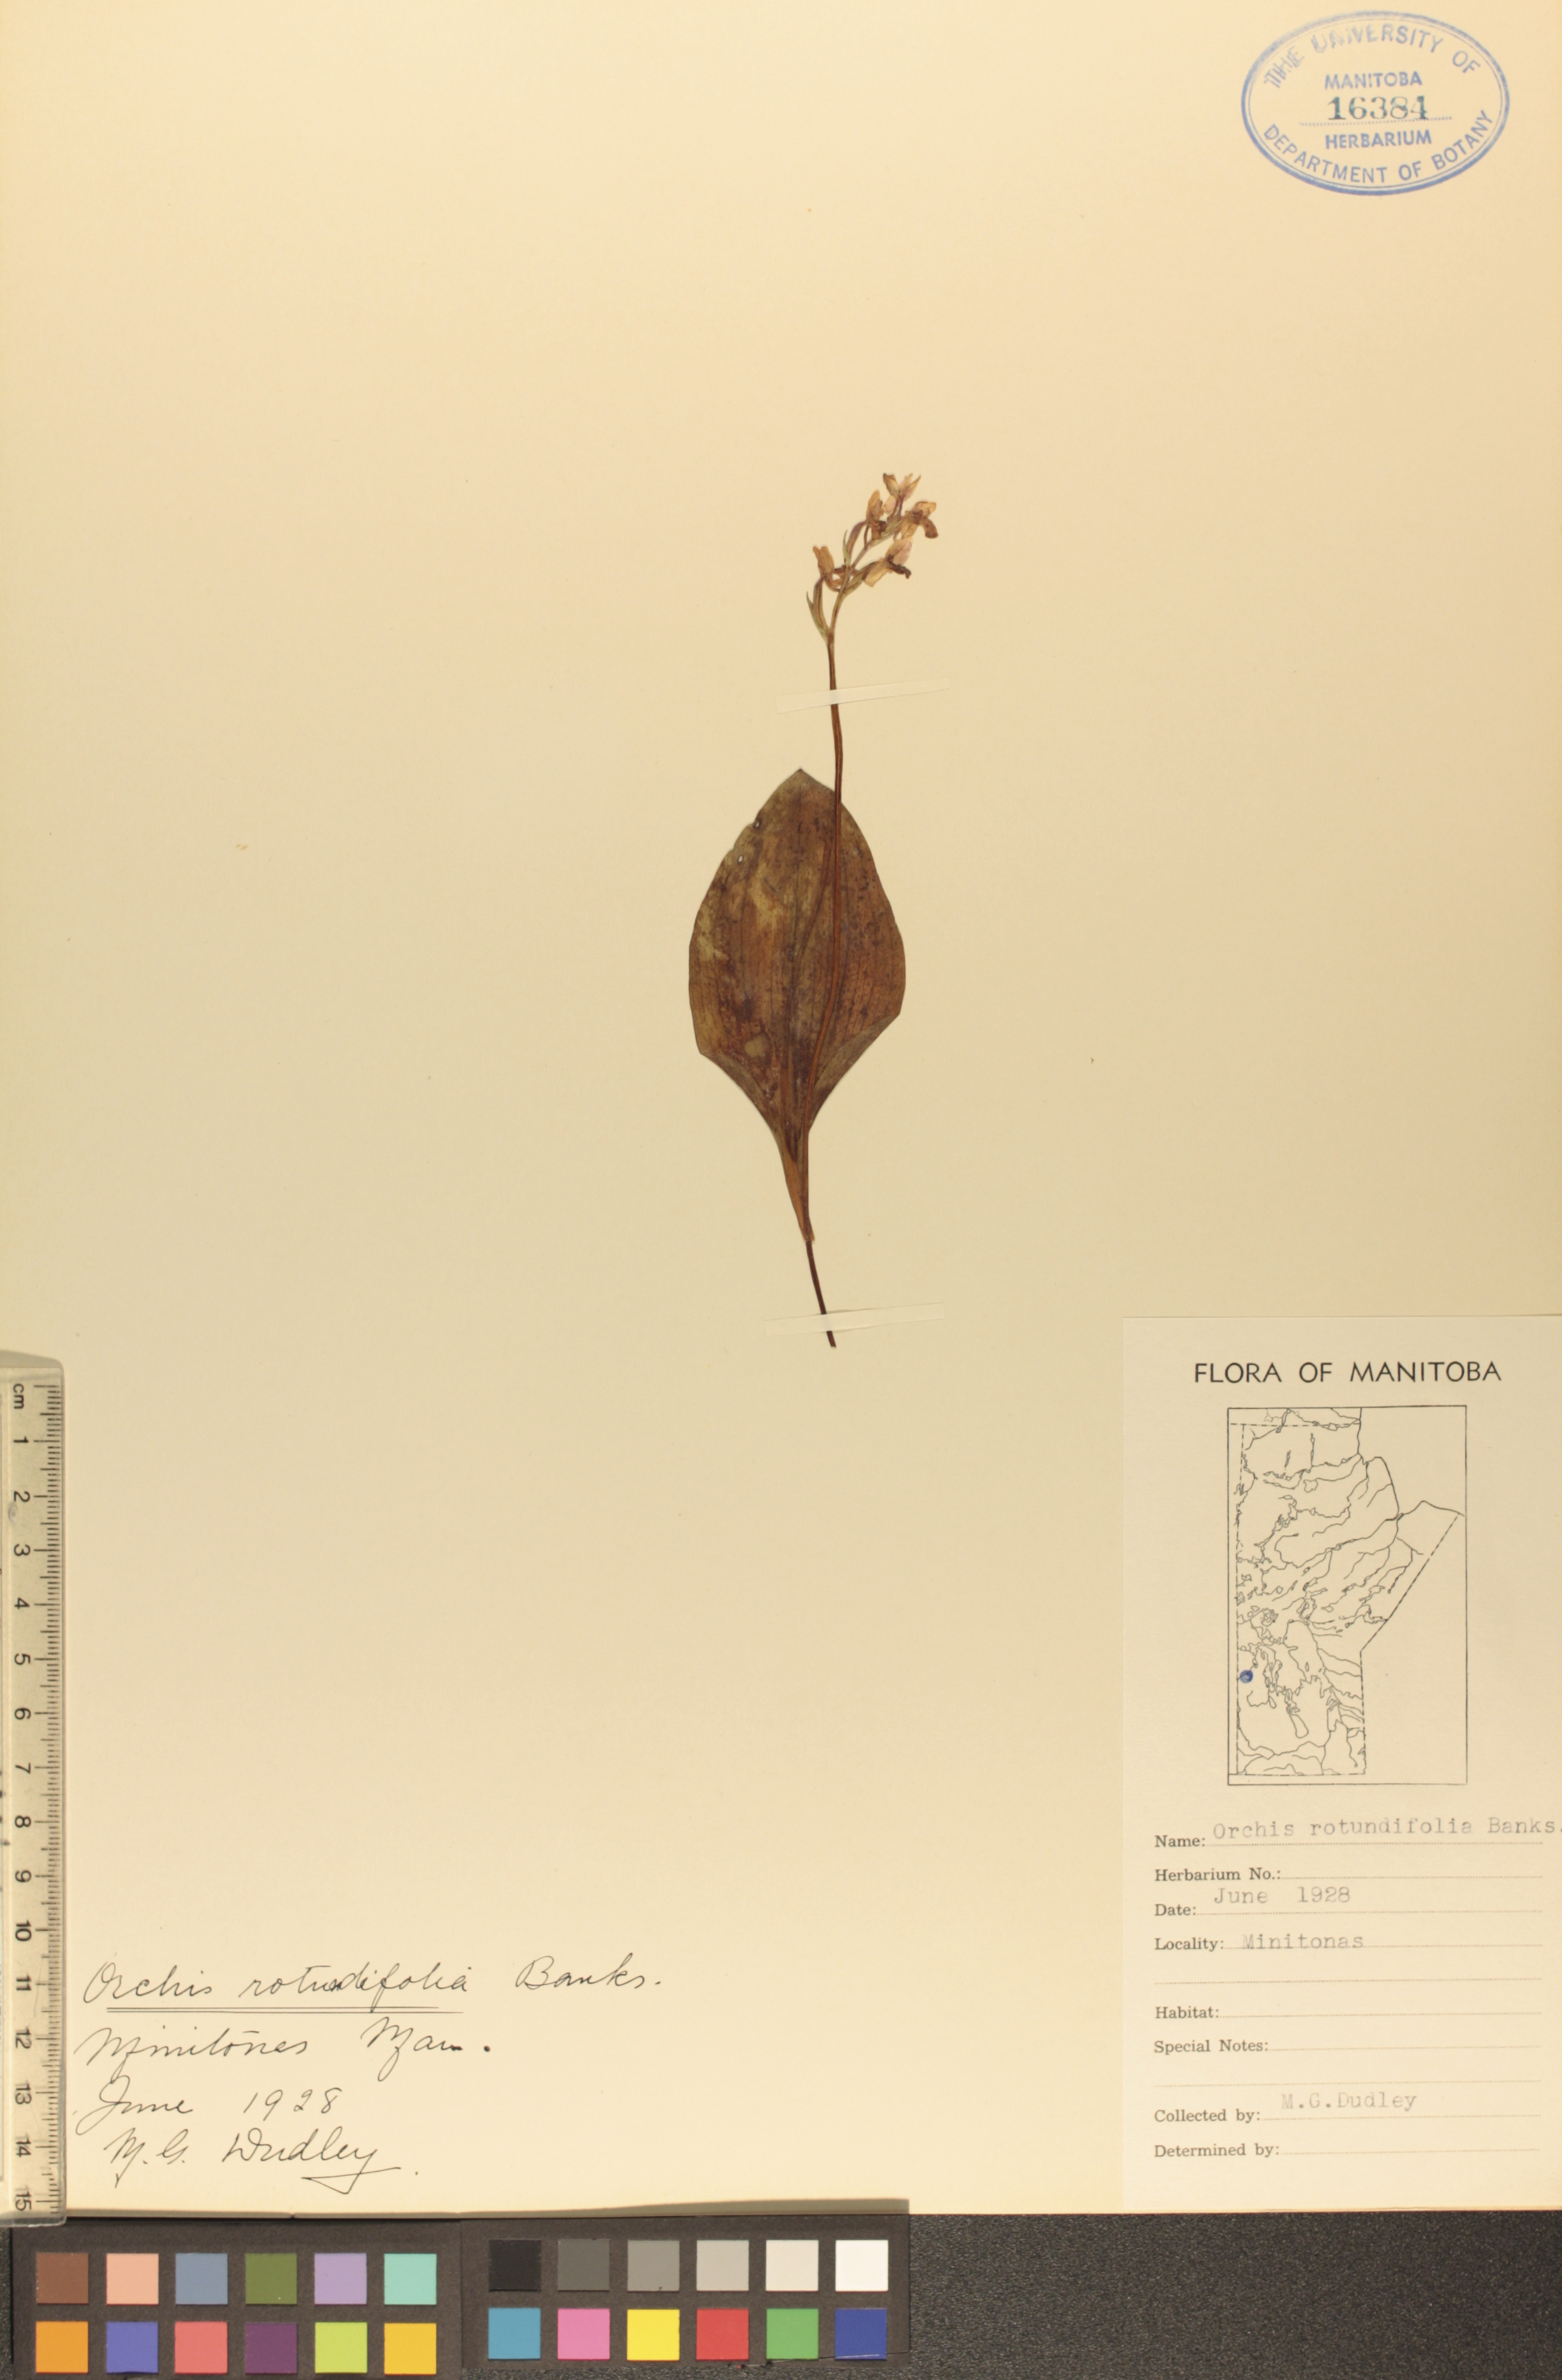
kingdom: Plantae
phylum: Tracheophyta
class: Liliopsida
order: Asparagales
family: Orchidaceae
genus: Galearis
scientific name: Galearis rotundifolia
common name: One-leaved orchis
